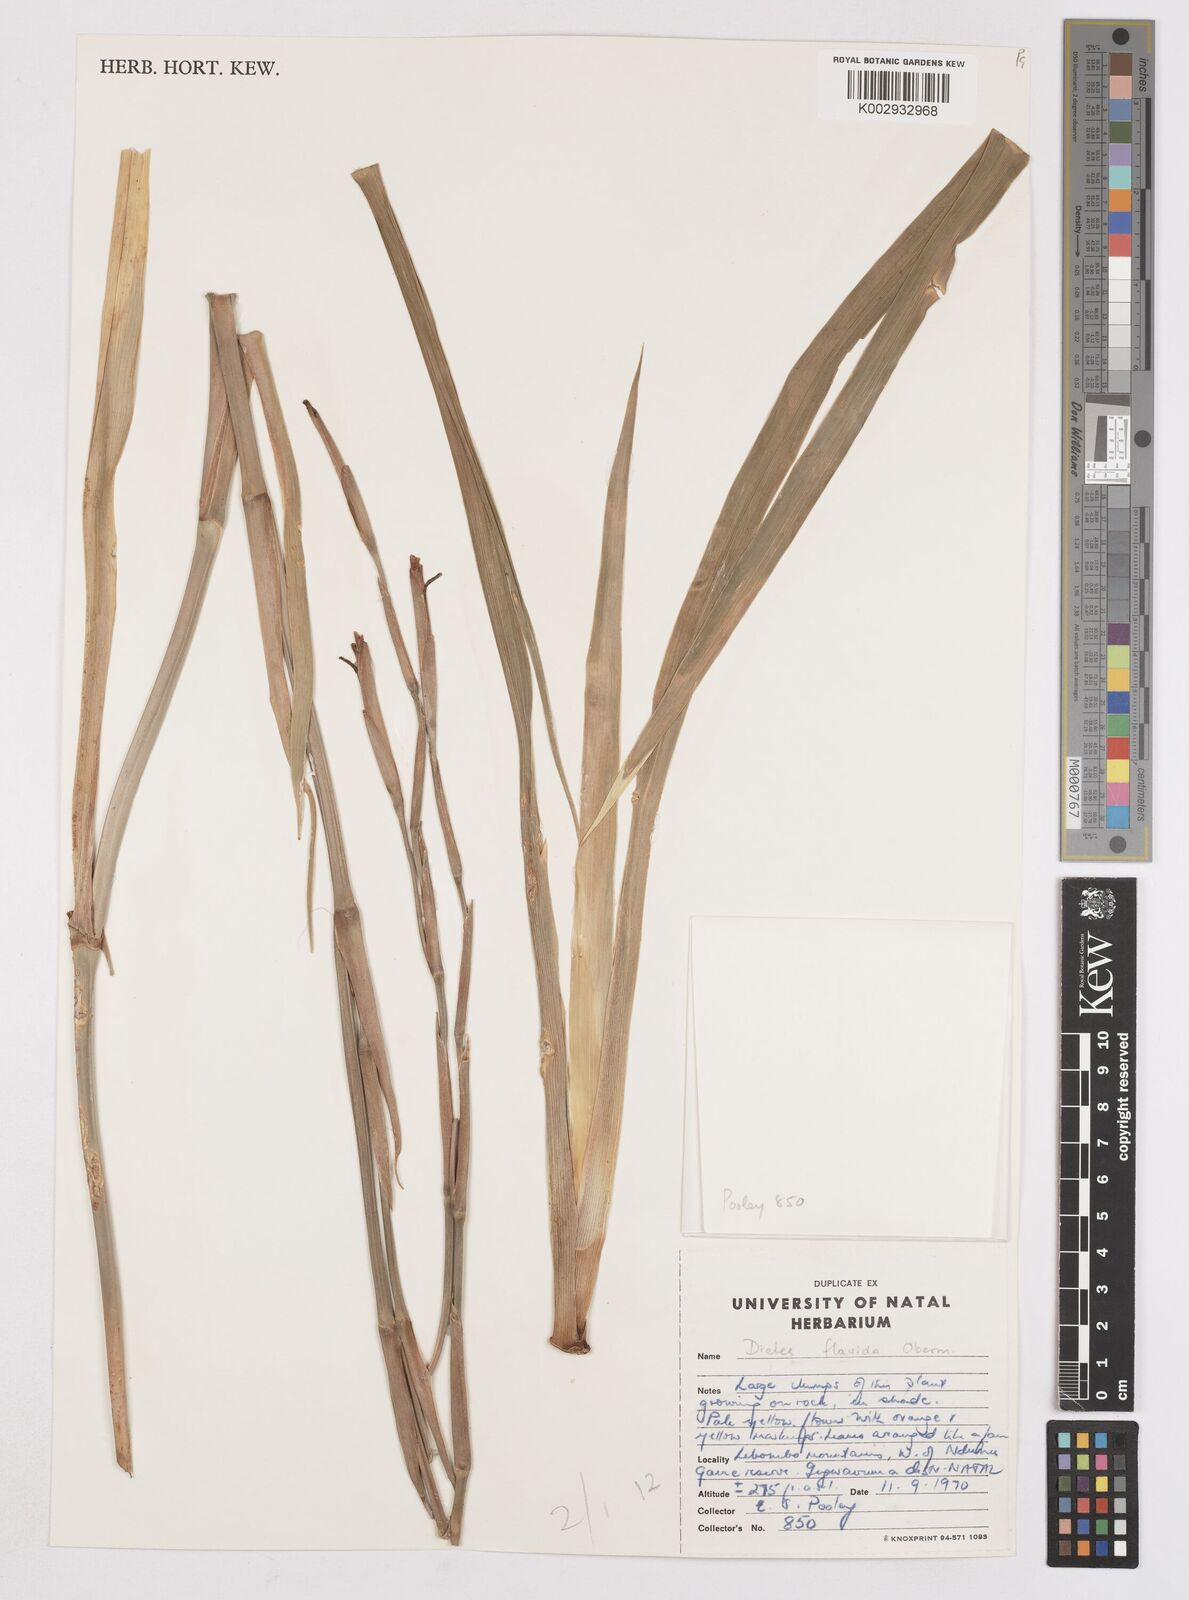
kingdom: Plantae
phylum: Tracheophyta
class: Liliopsida
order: Asparagales
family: Iridaceae
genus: Dietes
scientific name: Dietes flavida
